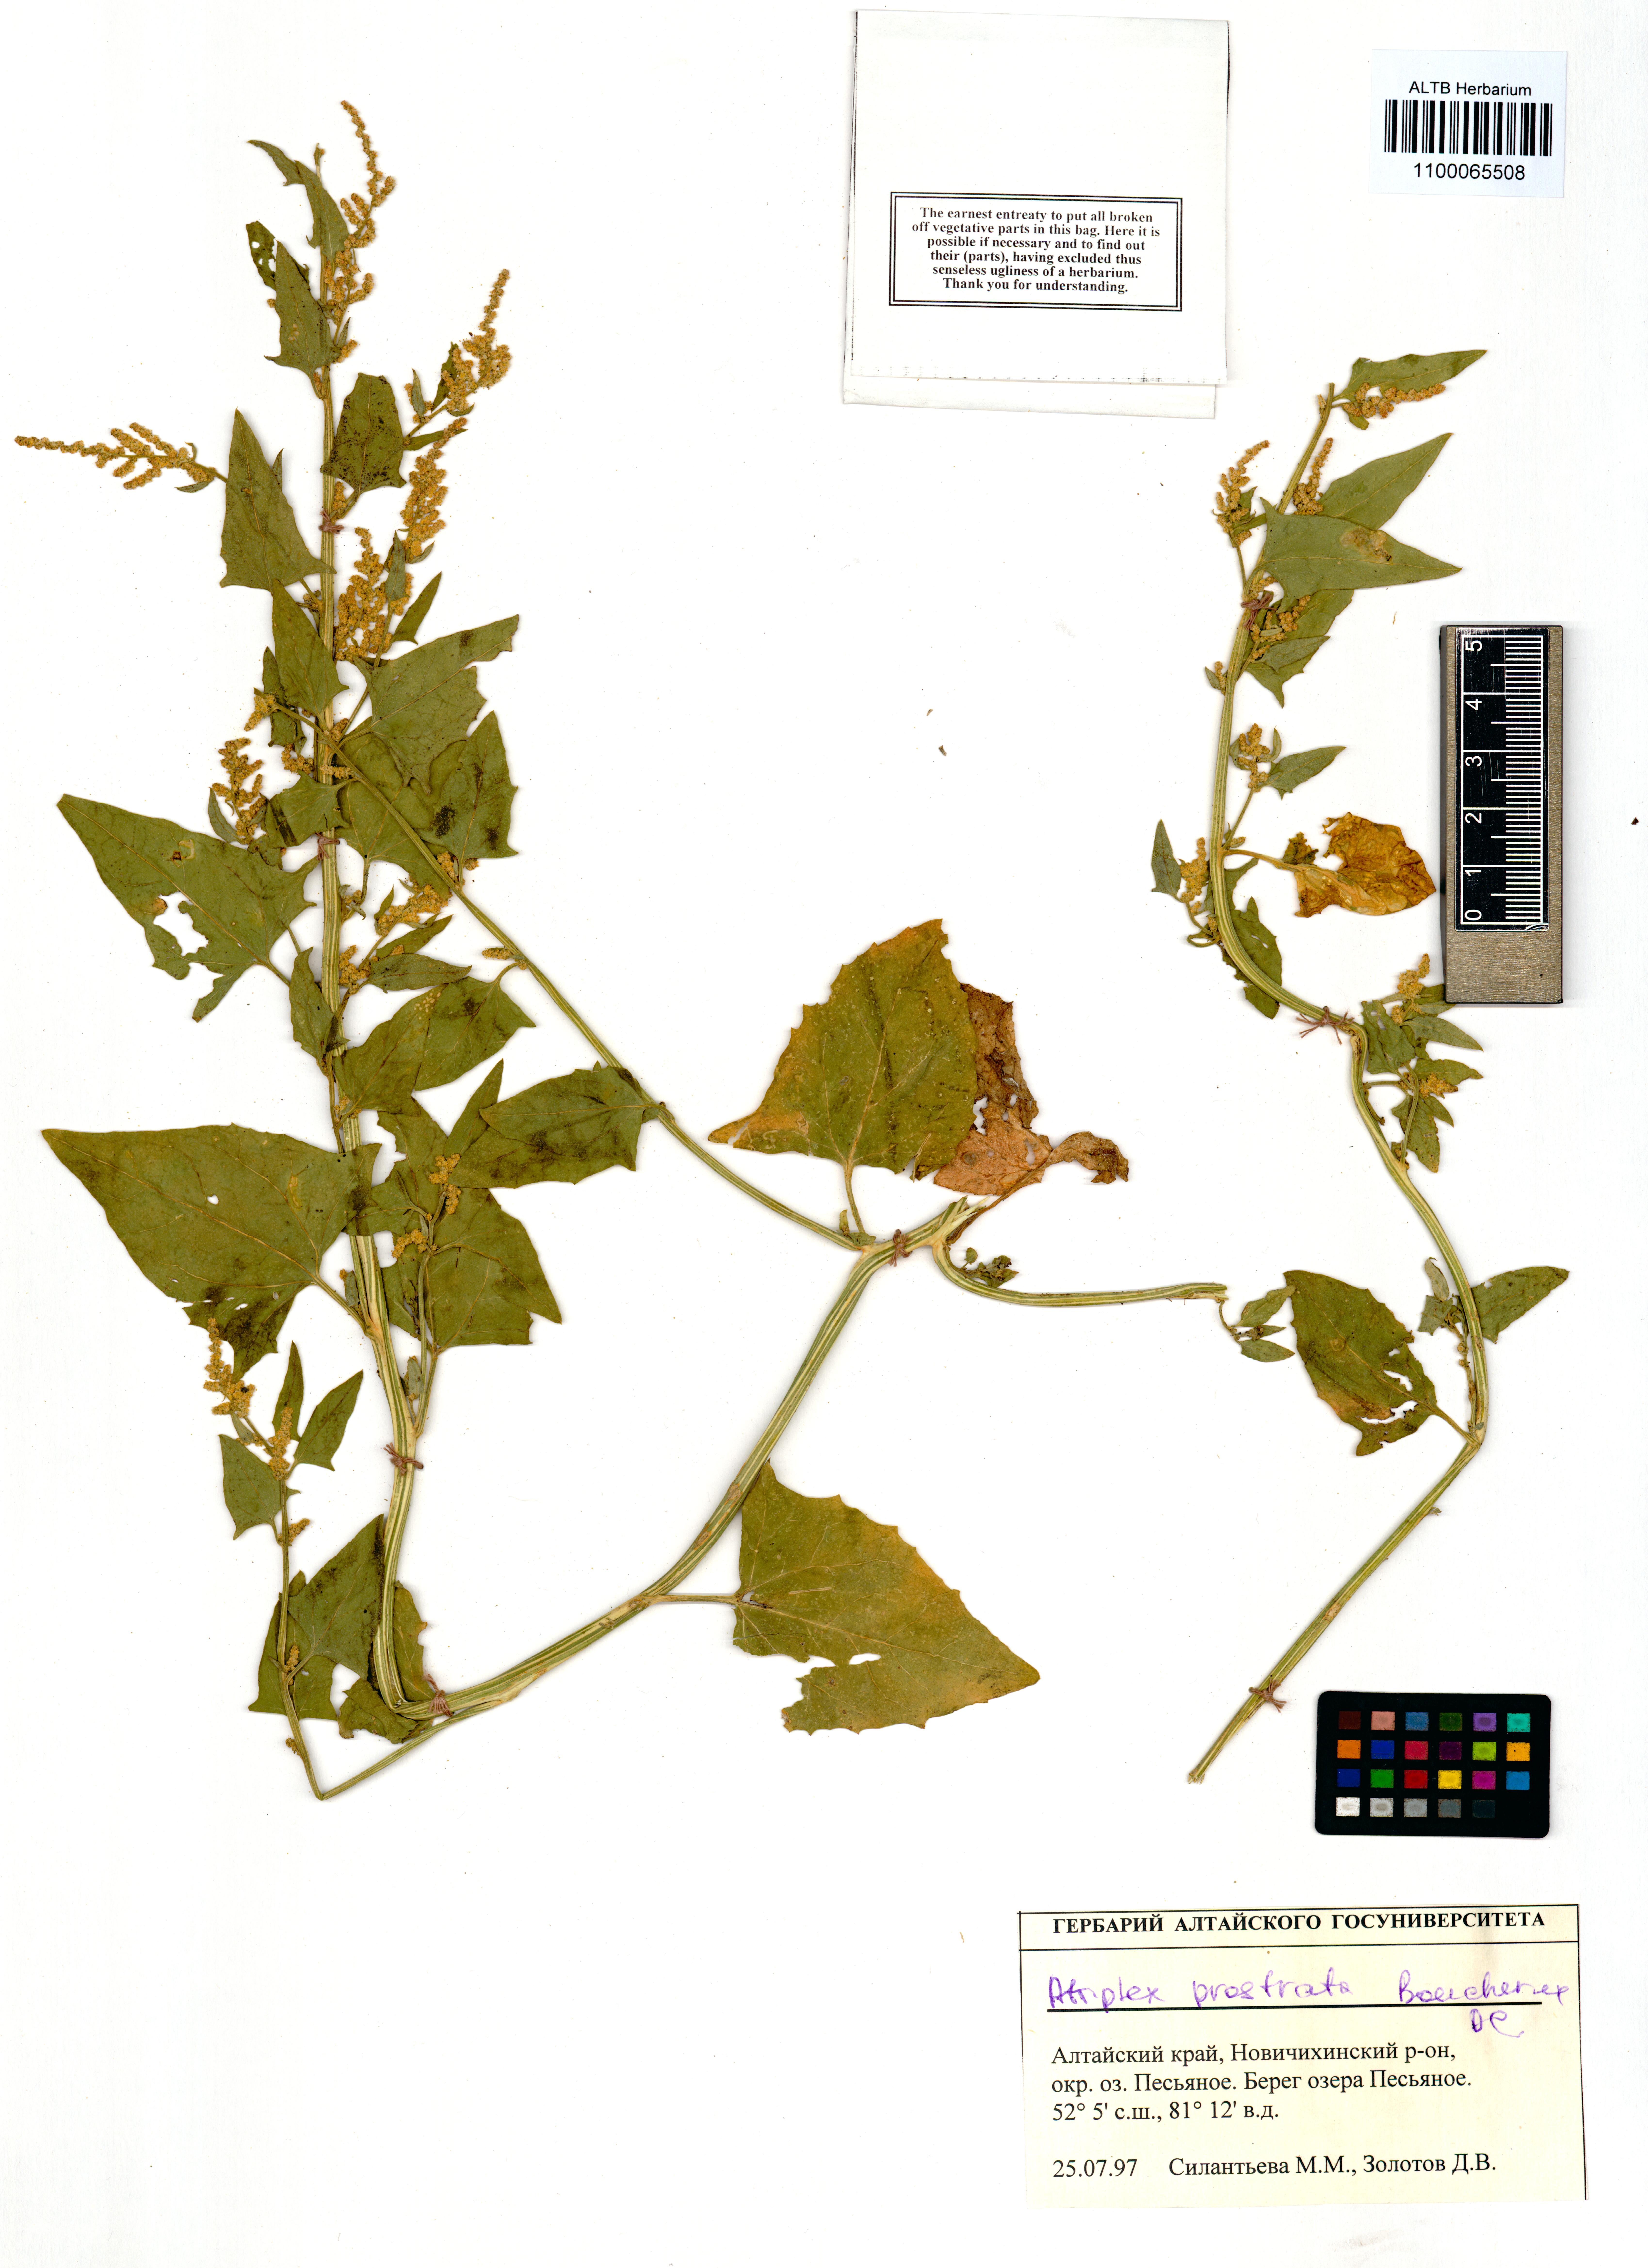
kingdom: Plantae
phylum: Tracheophyta
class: Magnoliopsida
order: Caryophyllales
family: Amaranthaceae
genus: Atriplex
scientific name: Atriplex prostrata
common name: Spear-leaved orache
